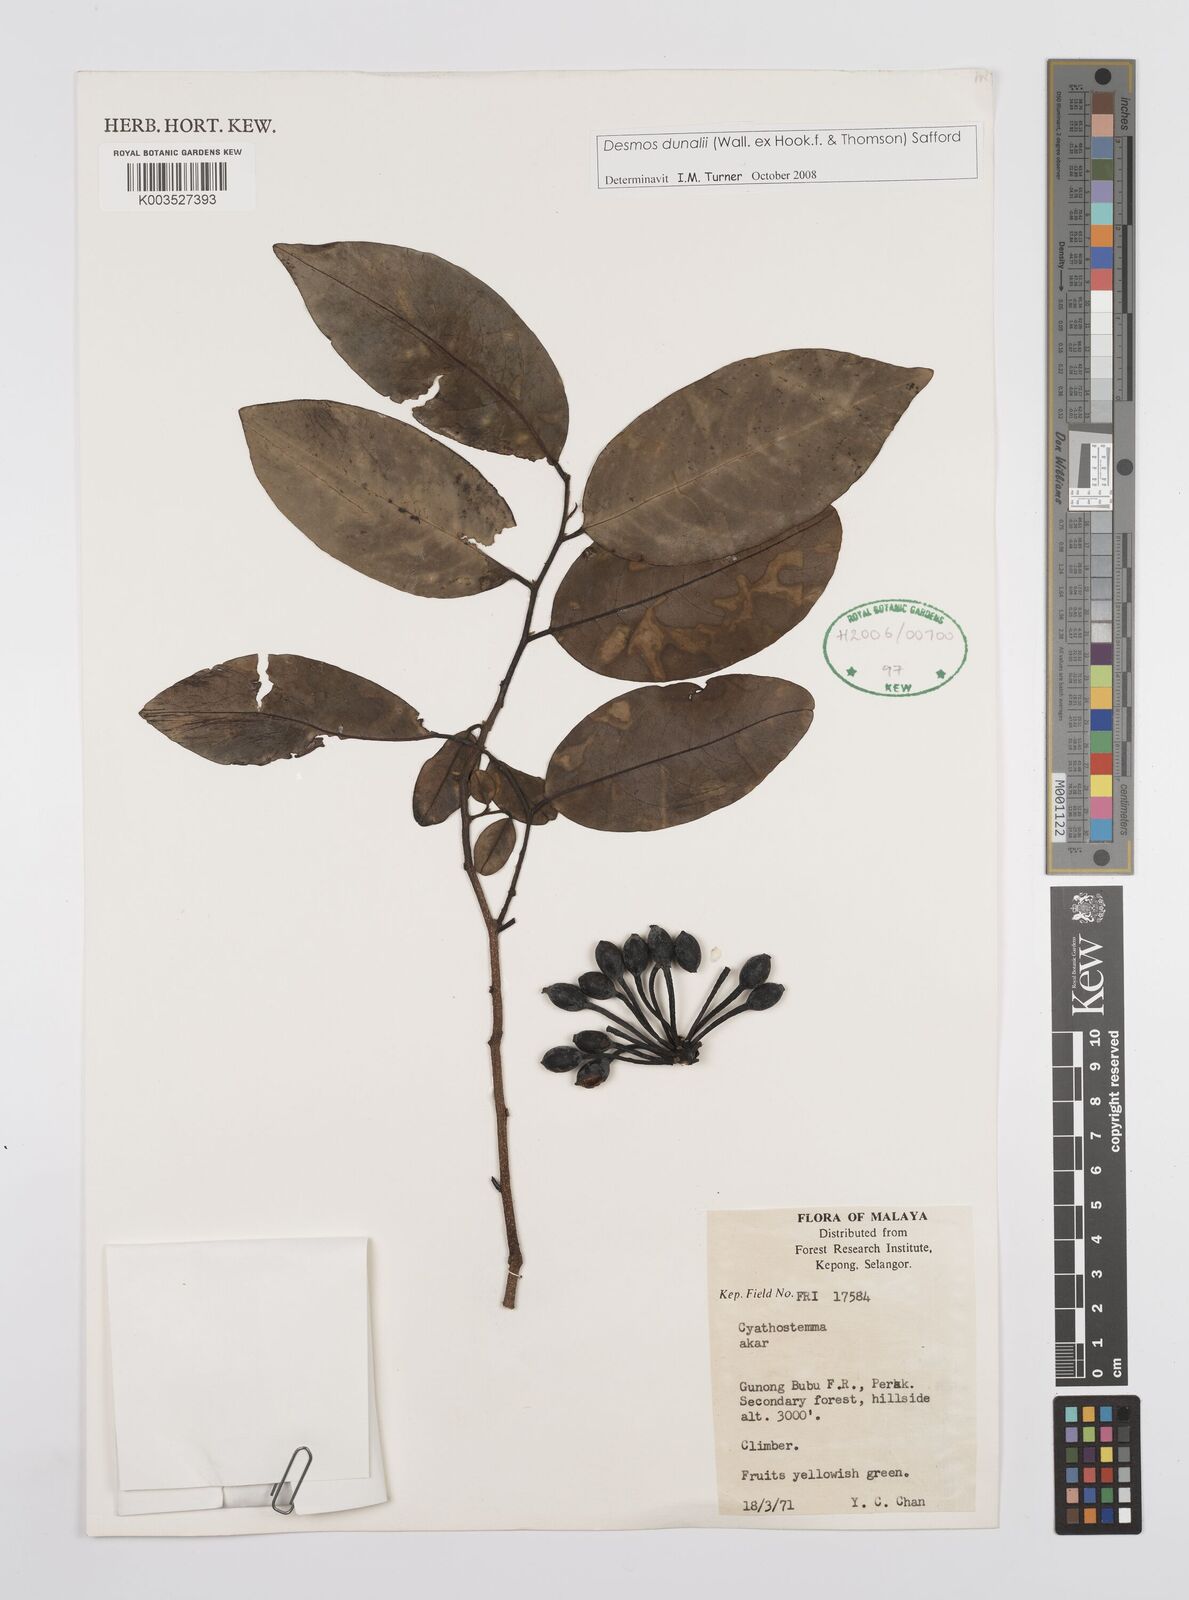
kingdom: Plantae
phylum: Tracheophyta
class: Magnoliopsida
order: Magnoliales
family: Annonaceae
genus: Desmos
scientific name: Desmos dunalii
